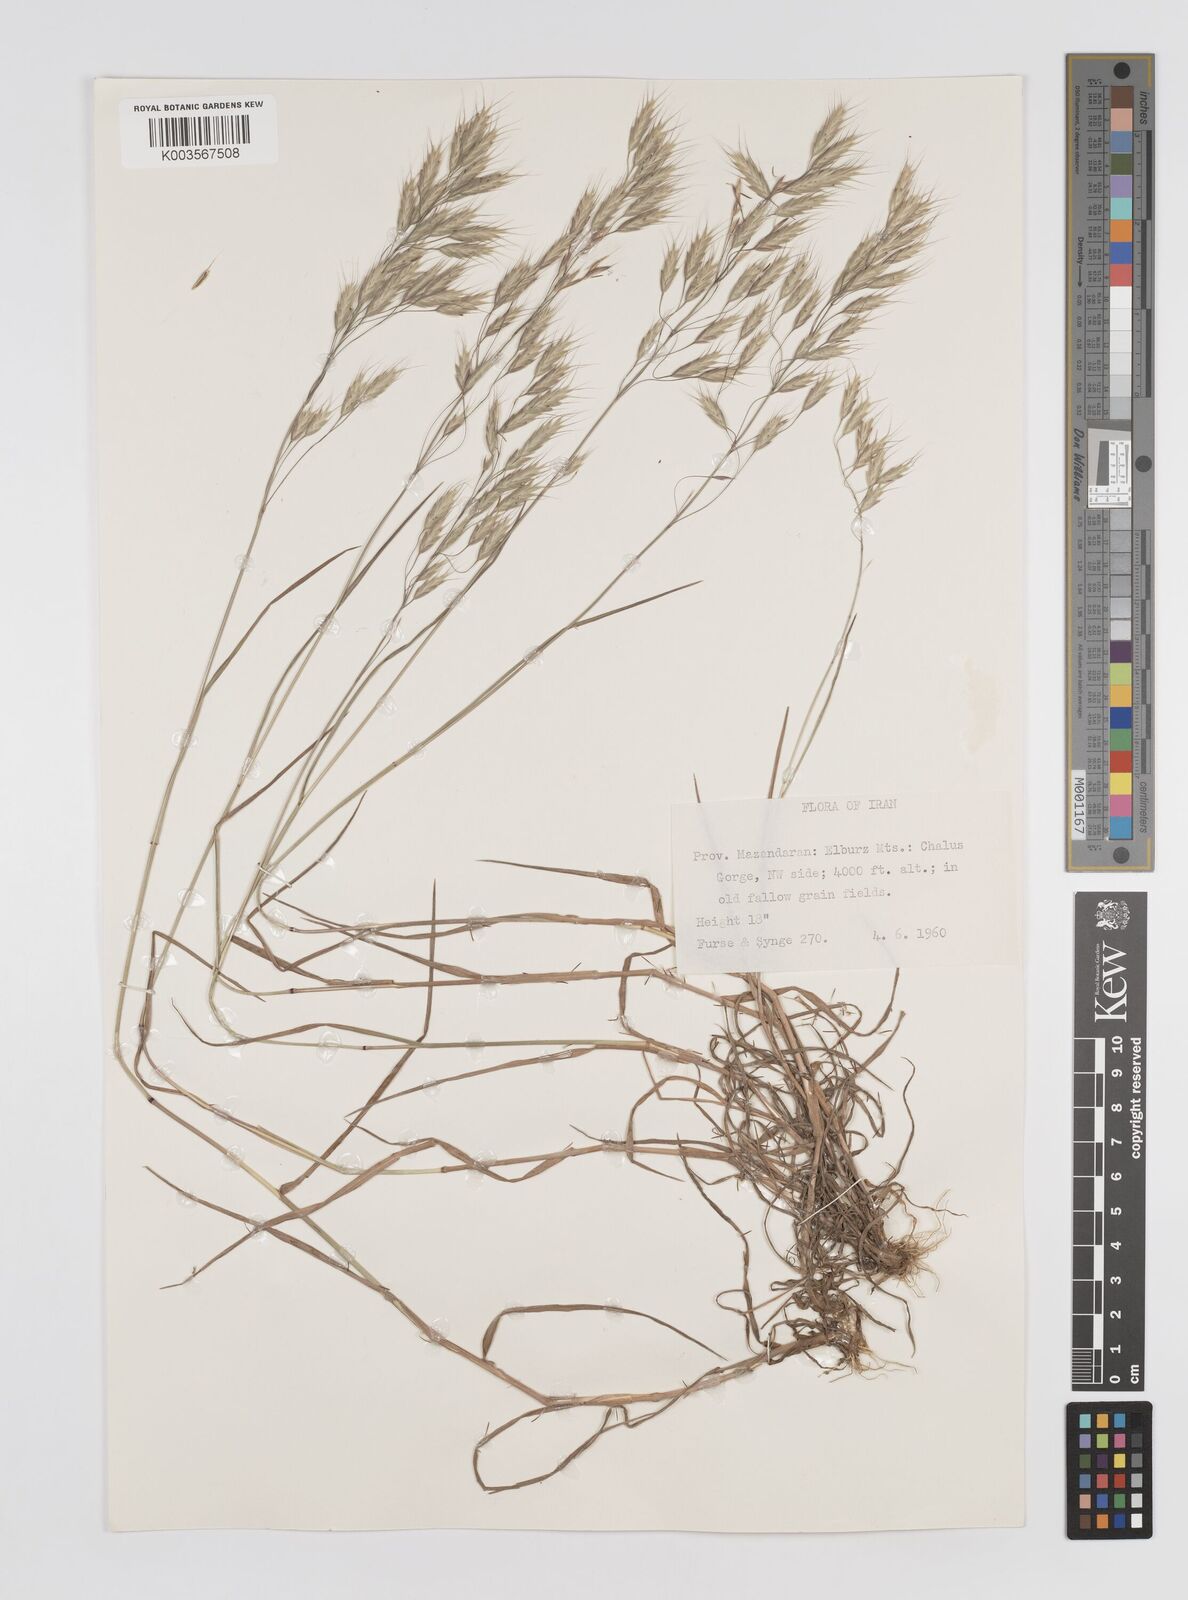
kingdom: Plantae
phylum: Tracheophyta
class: Liliopsida
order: Poales
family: Poaceae
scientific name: Poaceae
